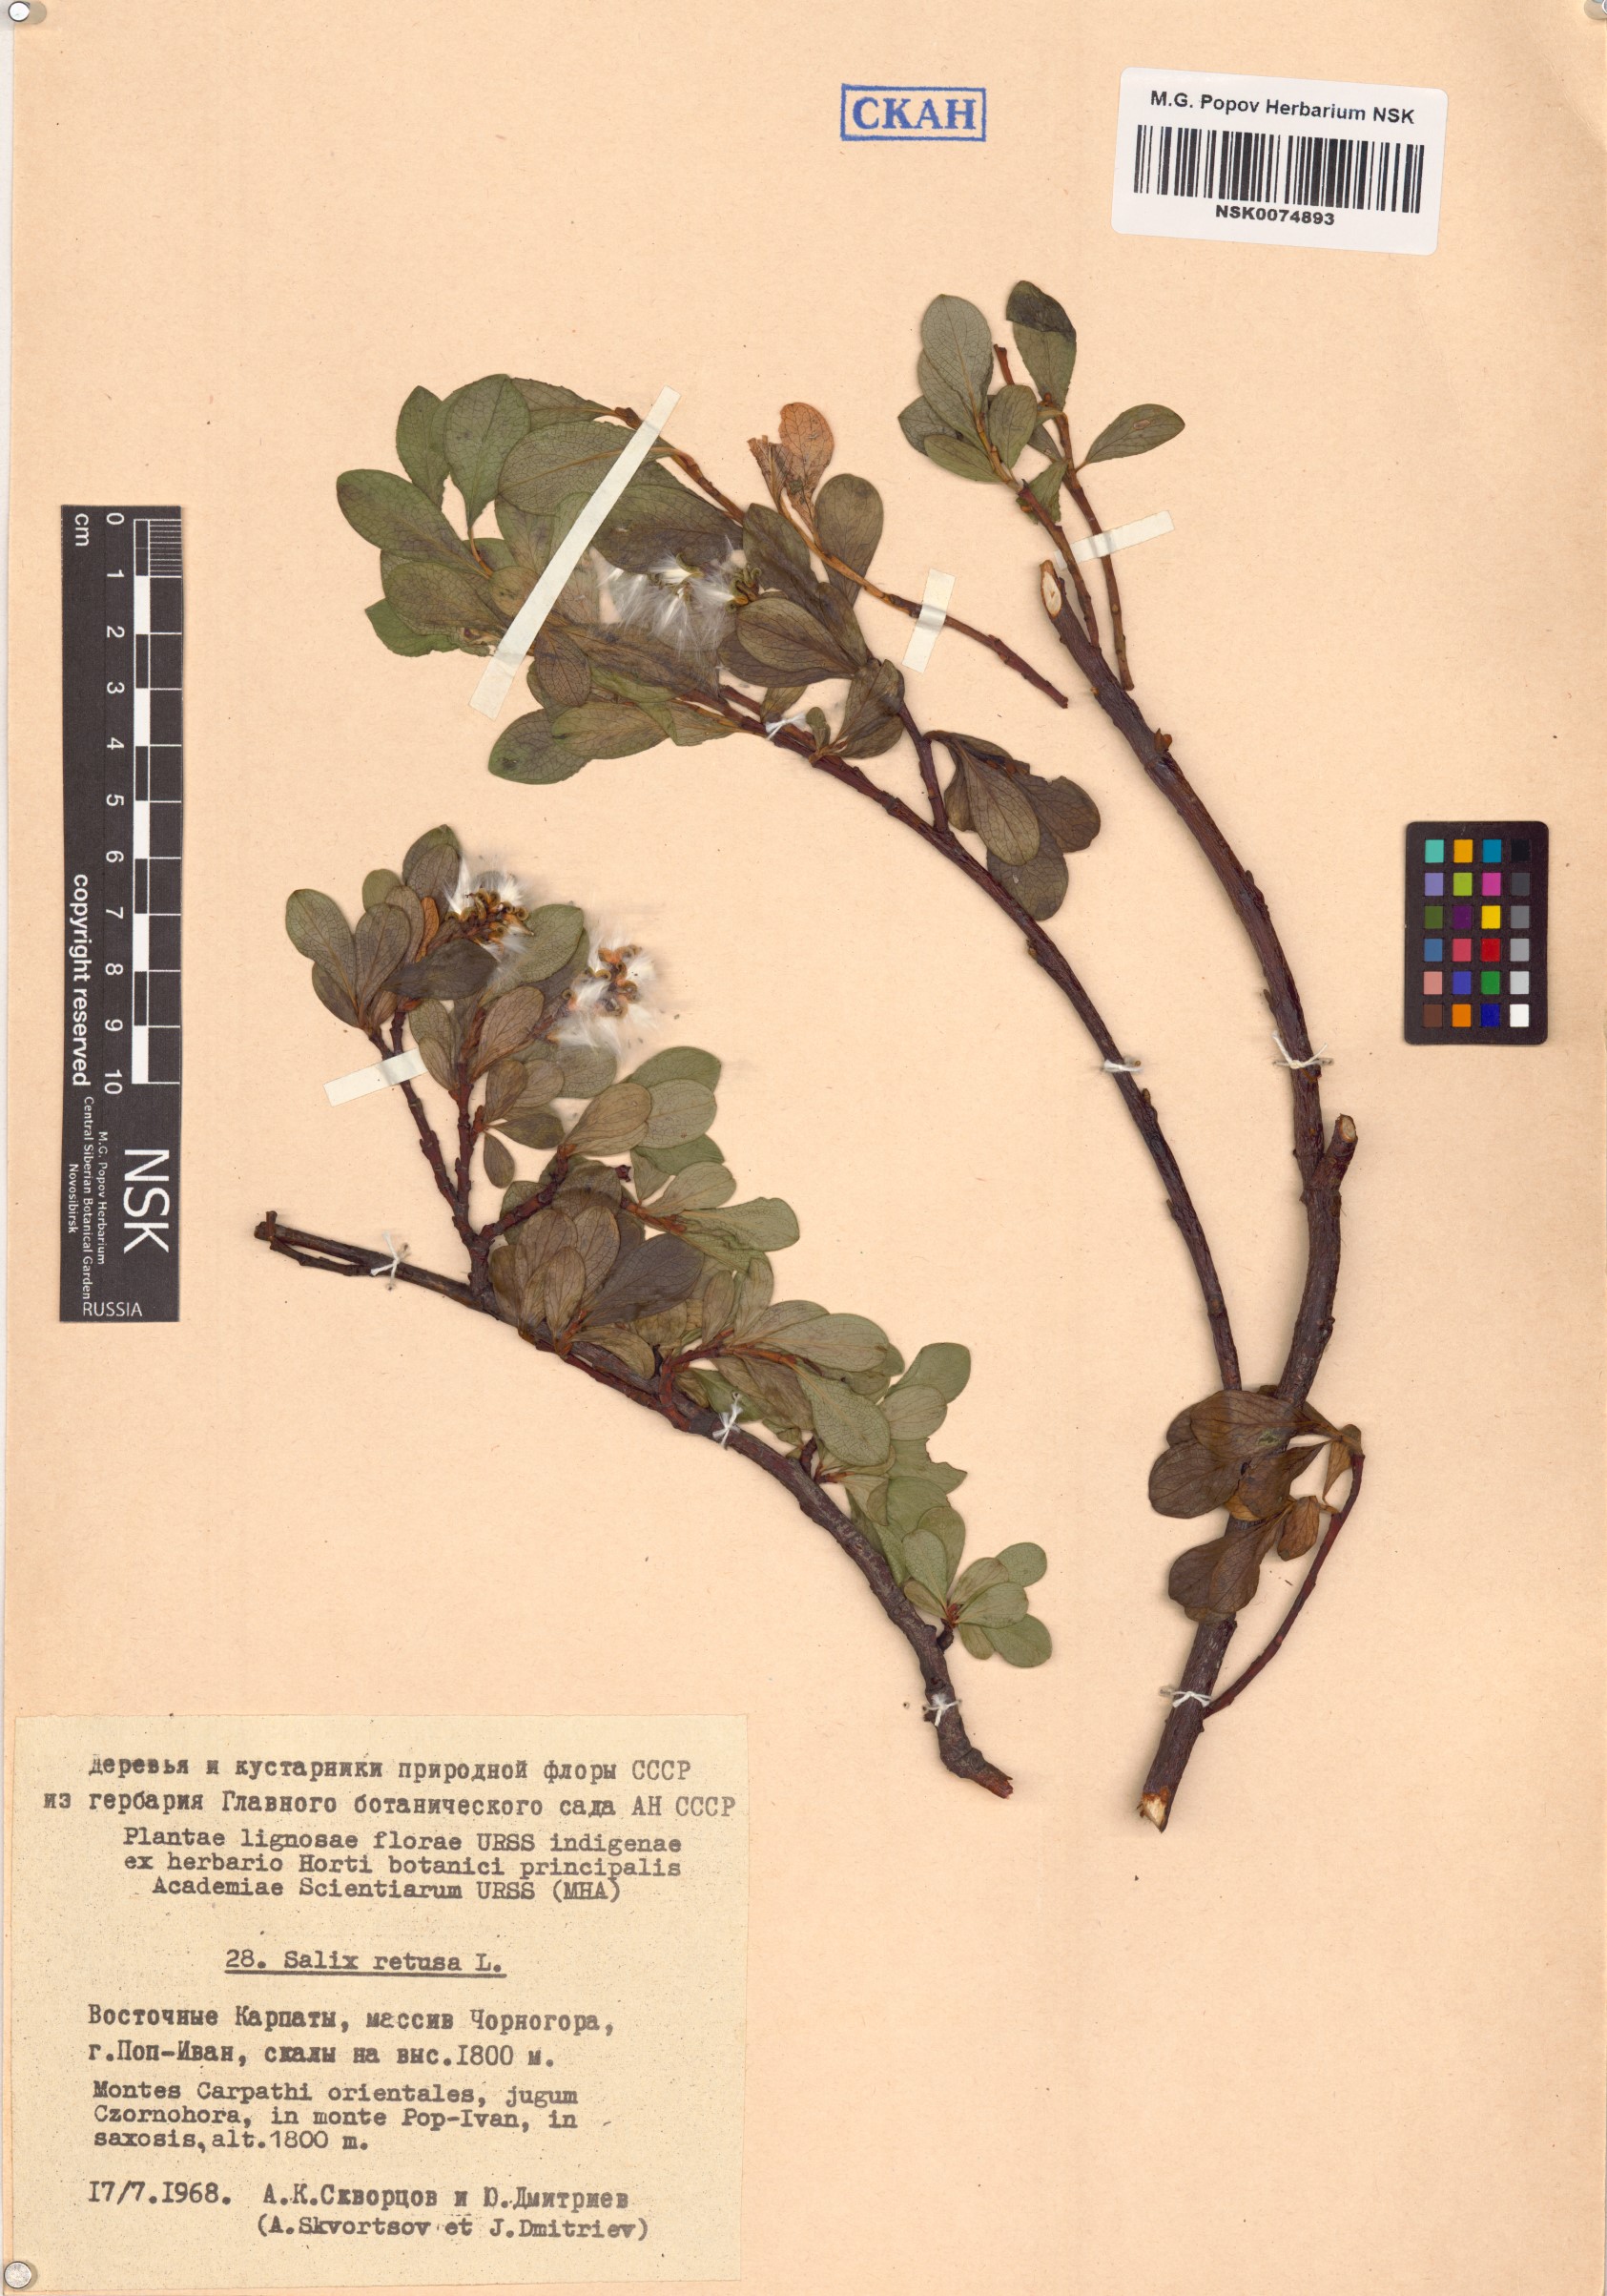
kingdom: Plantae
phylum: Tracheophyta
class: Magnoliopsida
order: Malpighiales
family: Salicaceae
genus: Salix
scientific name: Salix retusa
